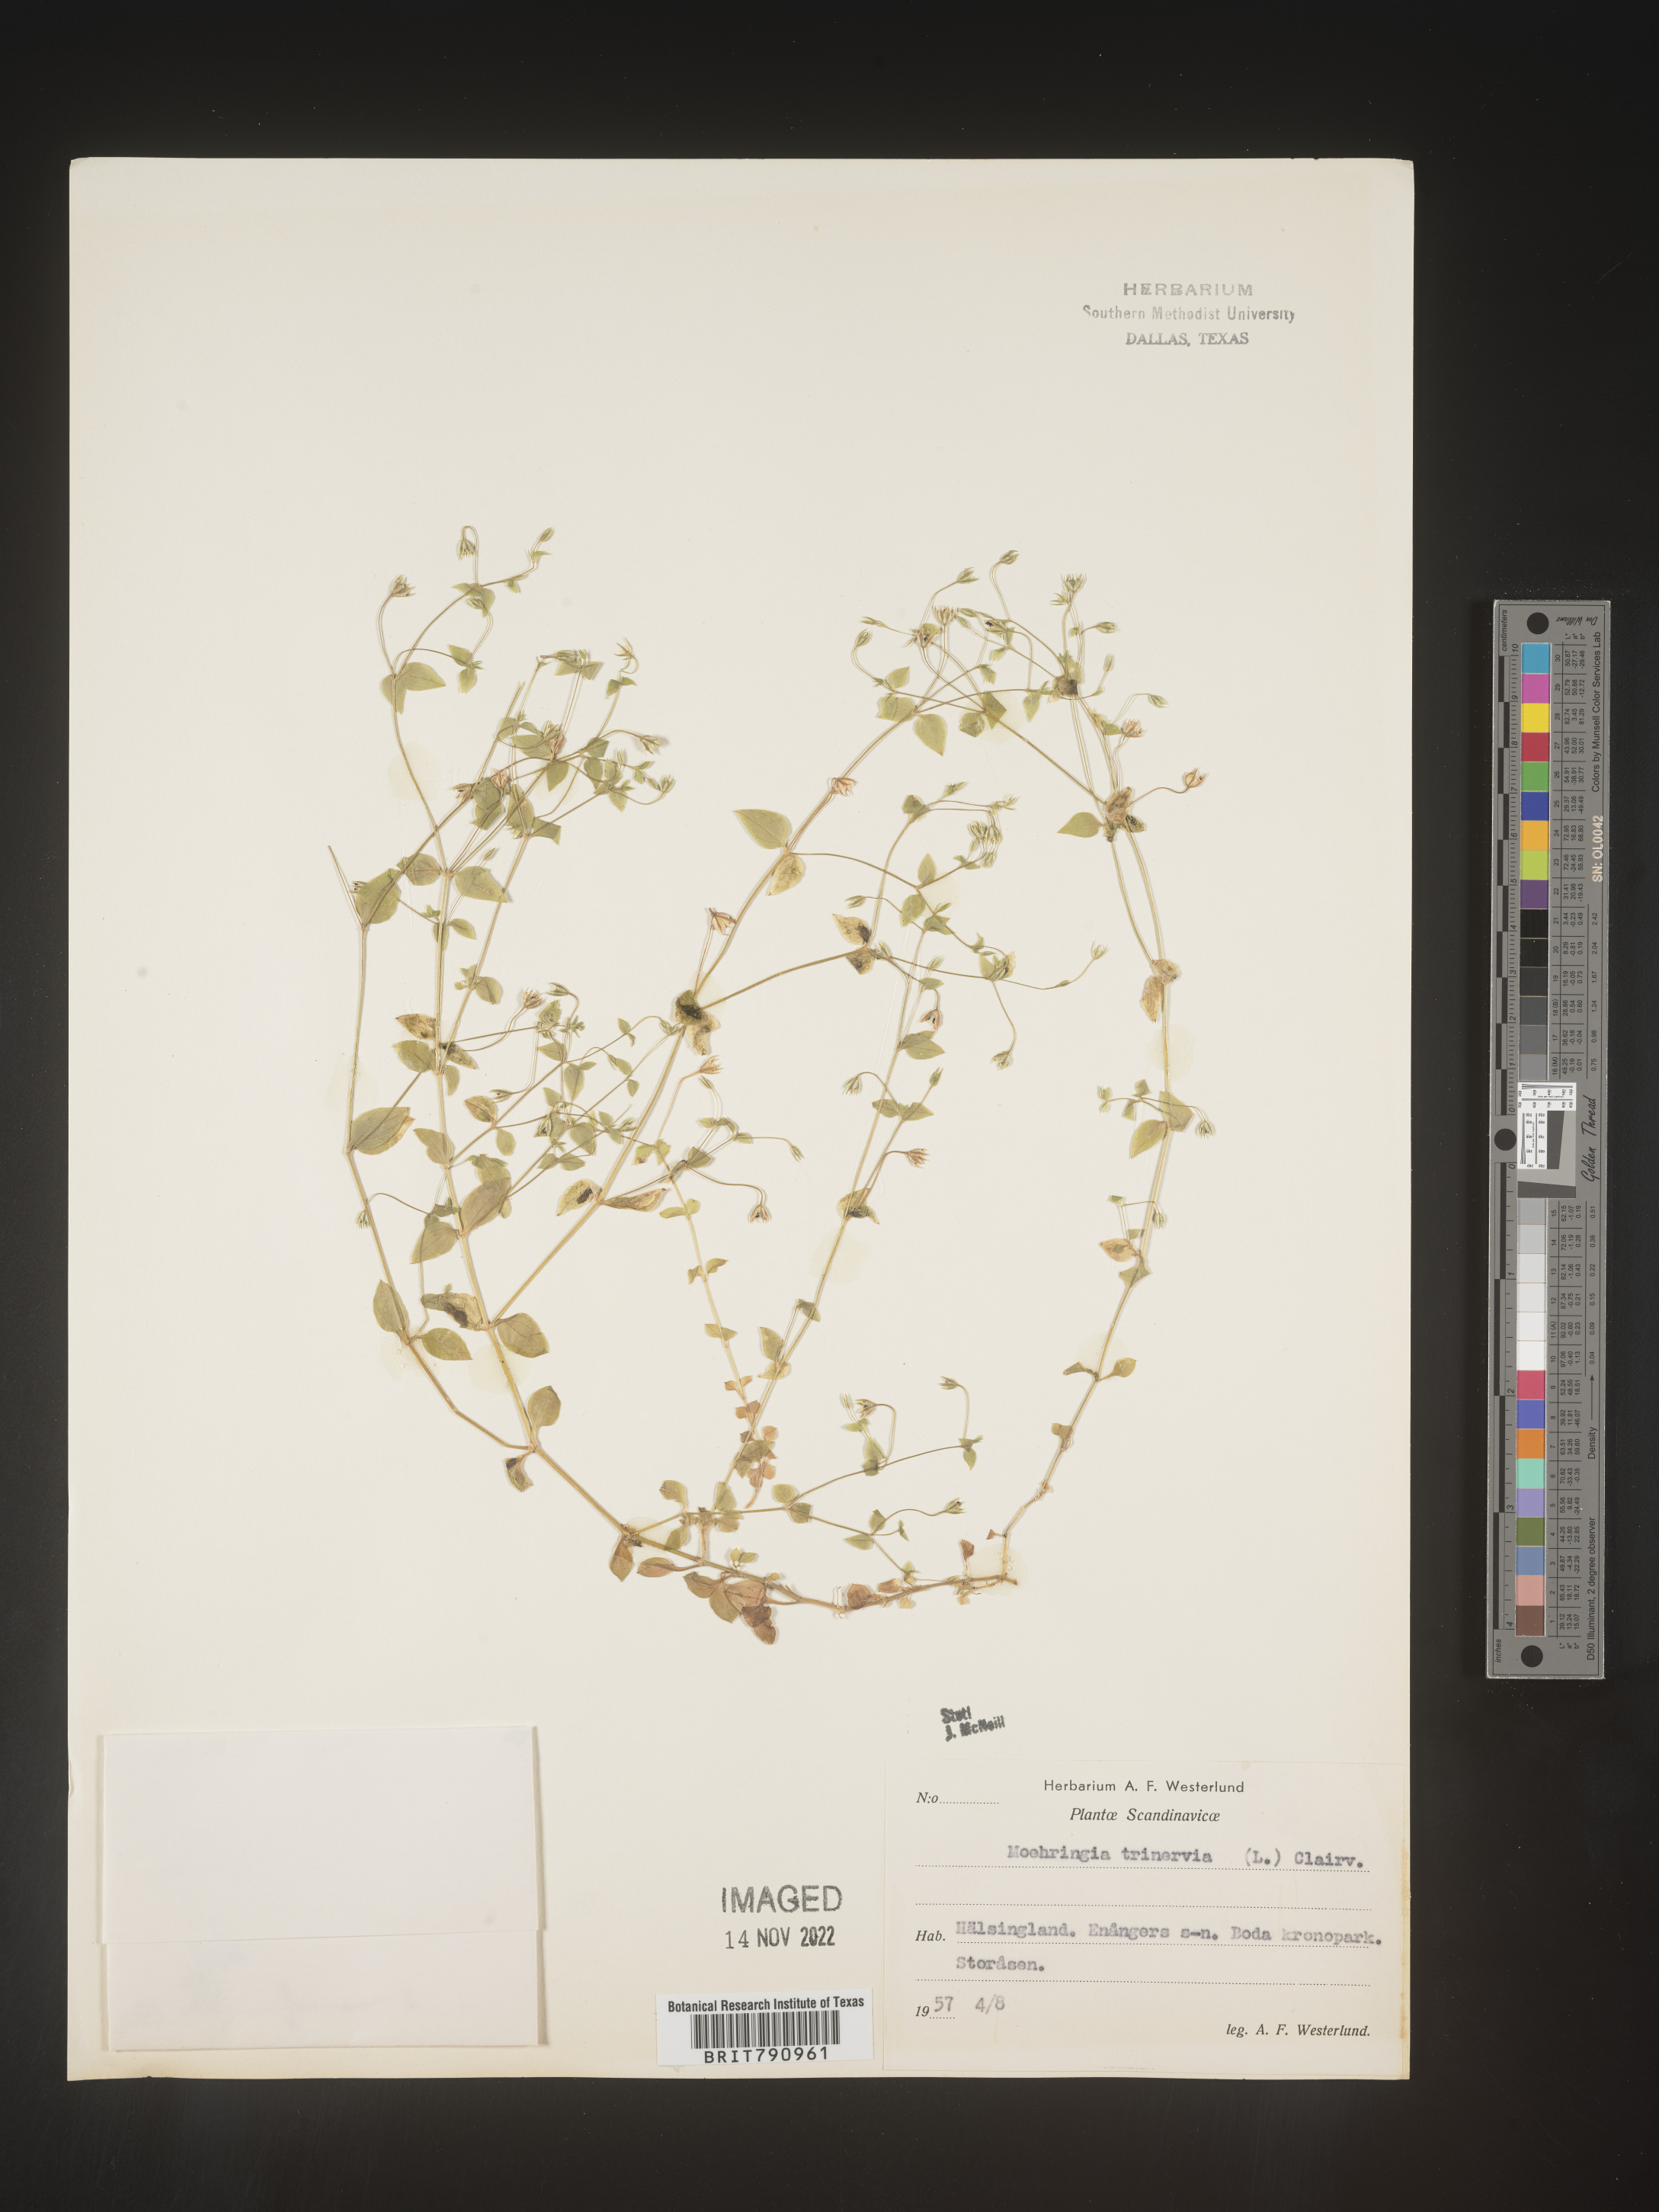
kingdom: Plantae
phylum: Tracheophyta
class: Magnoliopsida
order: Caryophyllales
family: Caryophyllaceae
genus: Moehringia
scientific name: Moehringia
